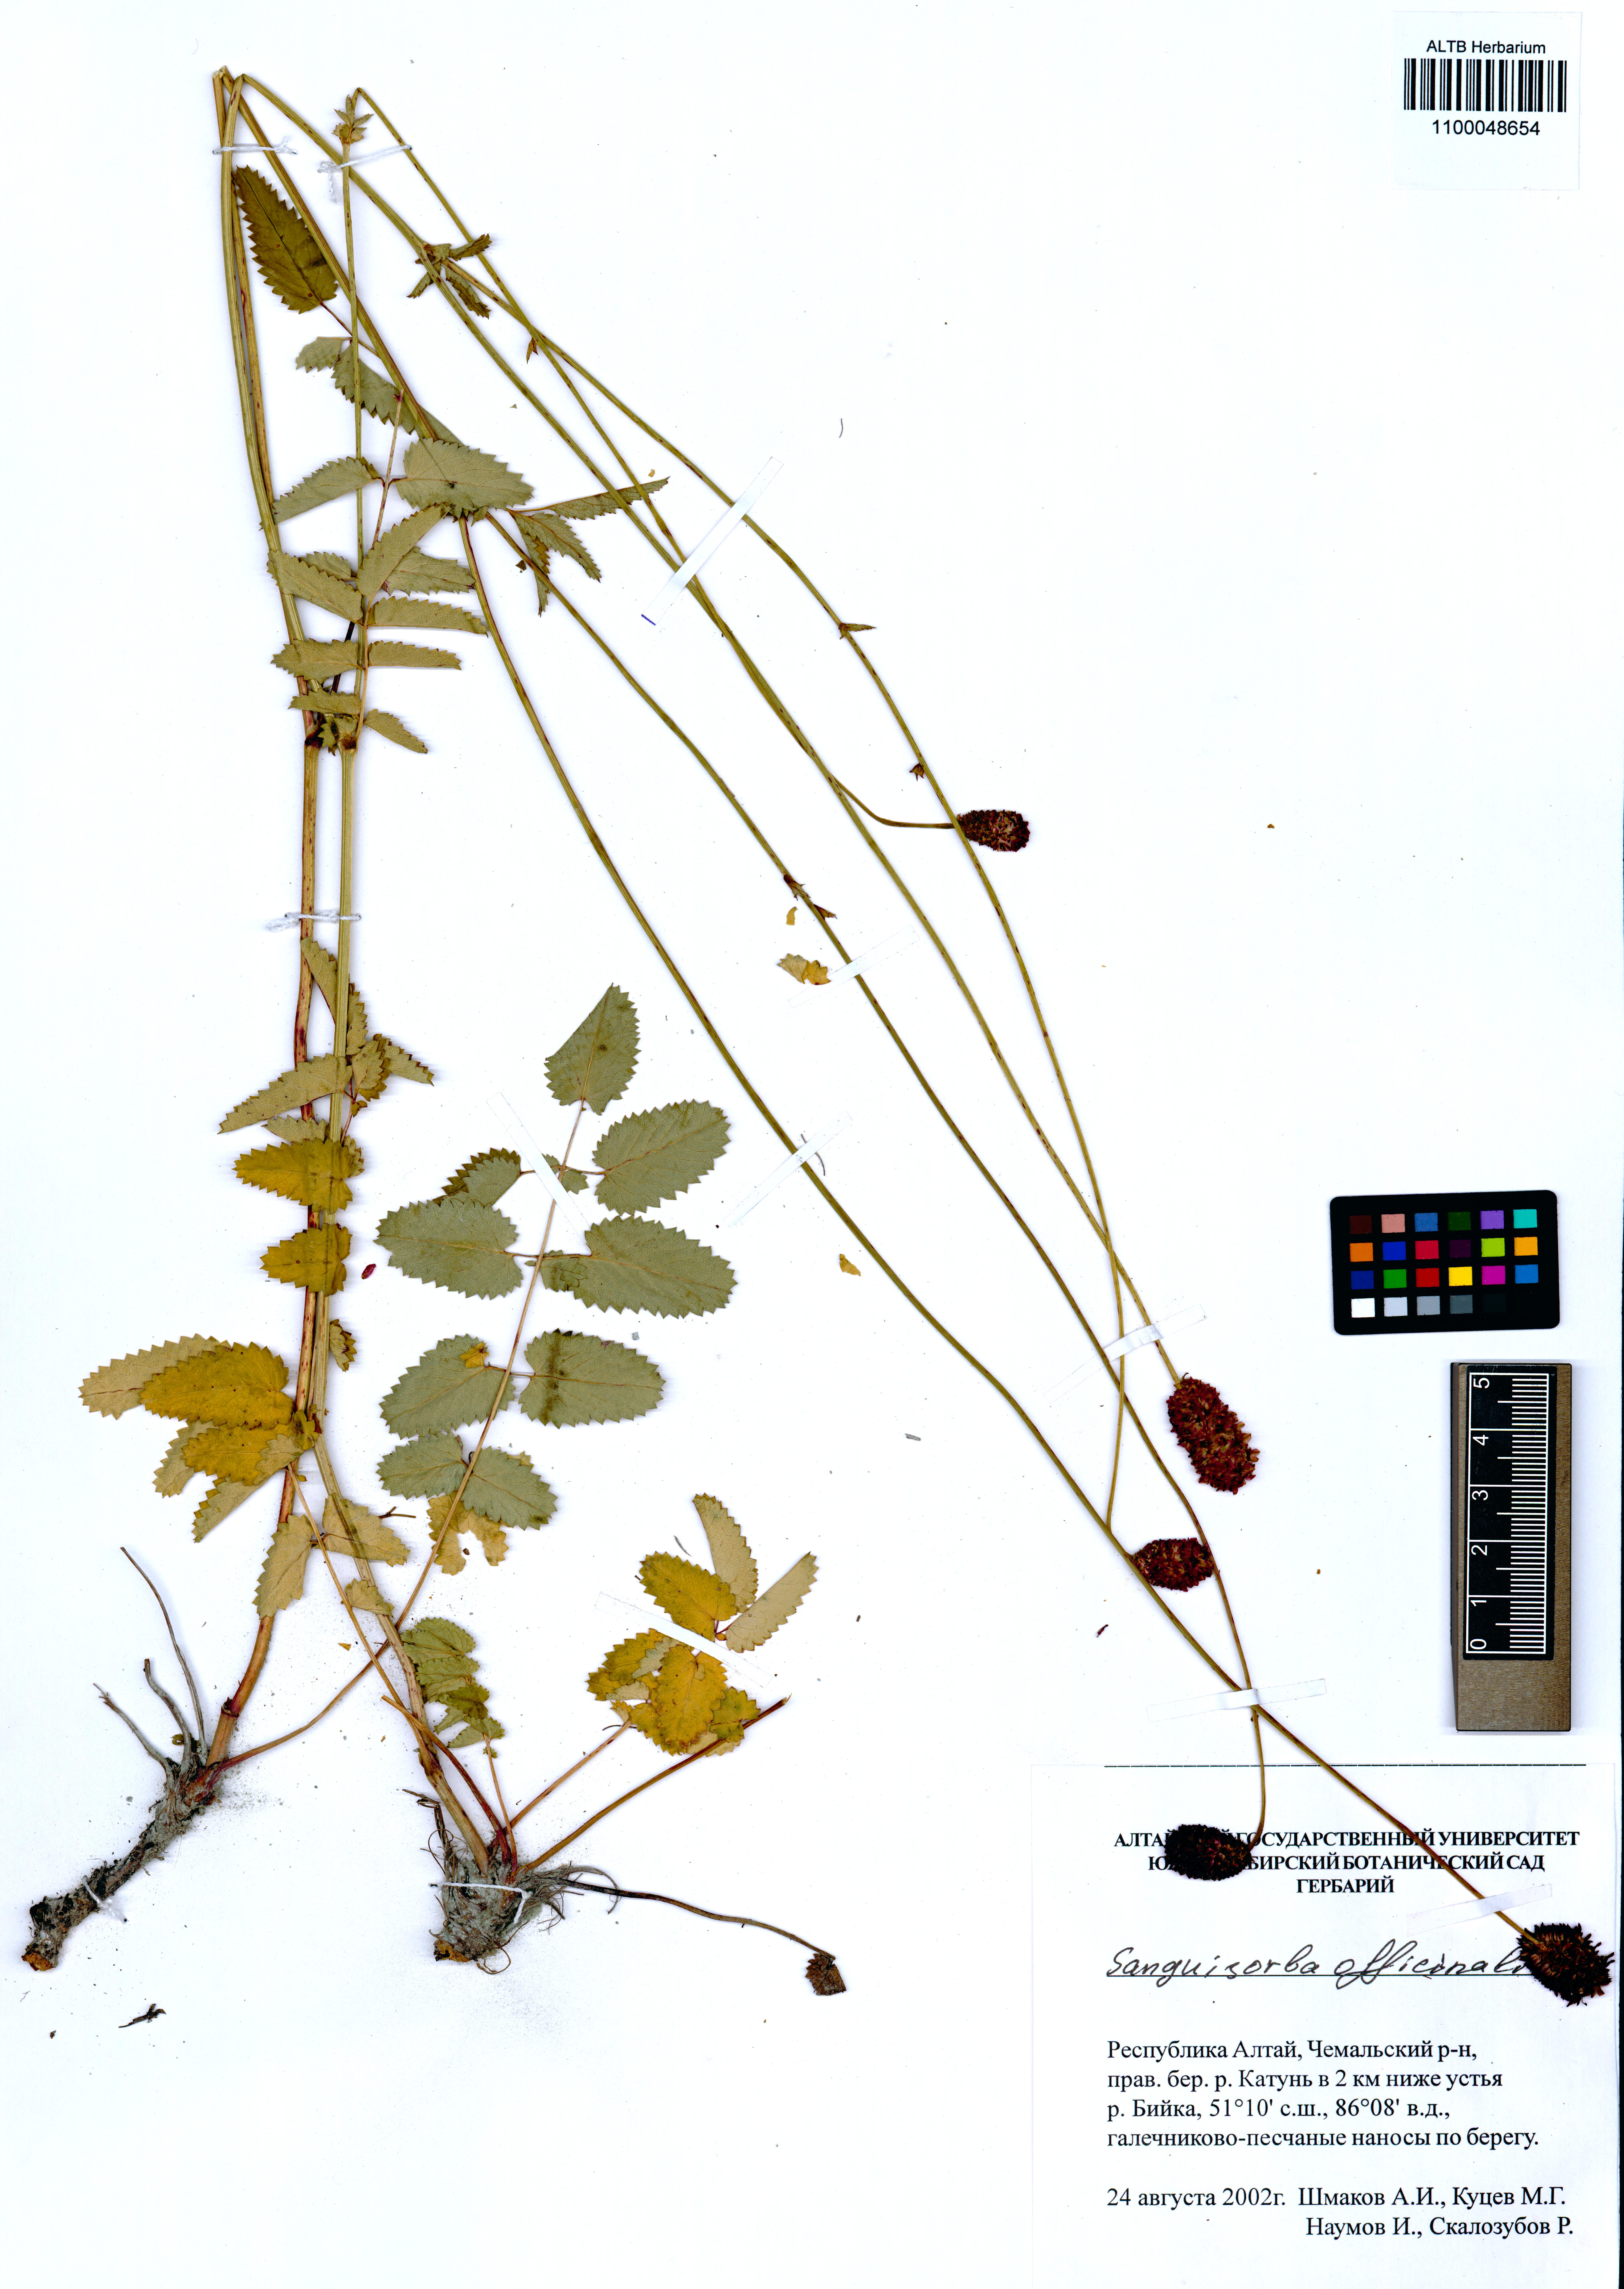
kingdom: Plantae
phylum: Tracheophyta
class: Magnoliopsida
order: Rosales
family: Rosaceae
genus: Sanguisorba
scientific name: Sanguisorba officinalis
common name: Great burnet
